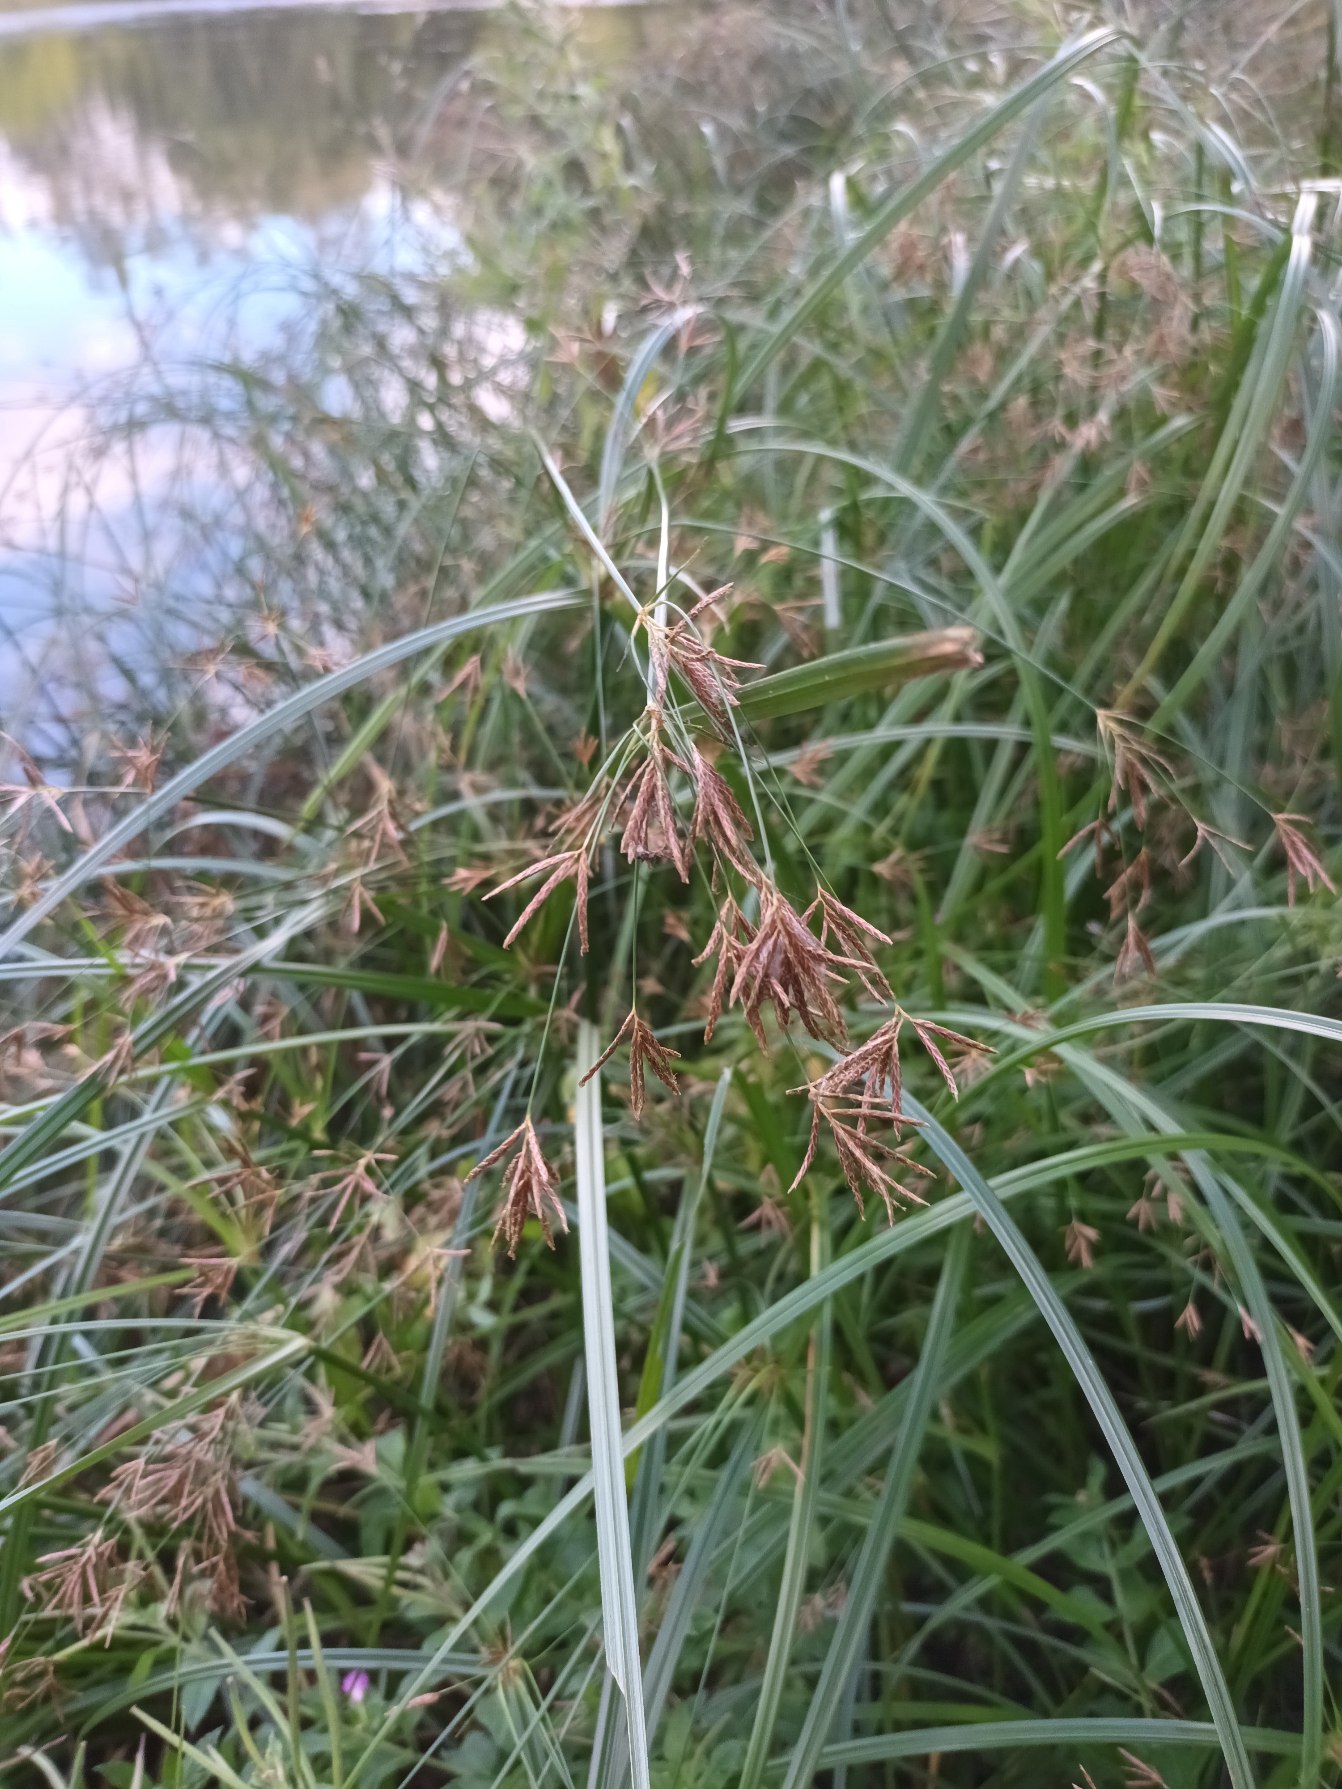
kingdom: Plantae
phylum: Tracheophyta
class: Liliopsida
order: Poales
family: Cyperaceae
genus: Cyperus
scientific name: Cyperus longus
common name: Smalbladet fladaks
